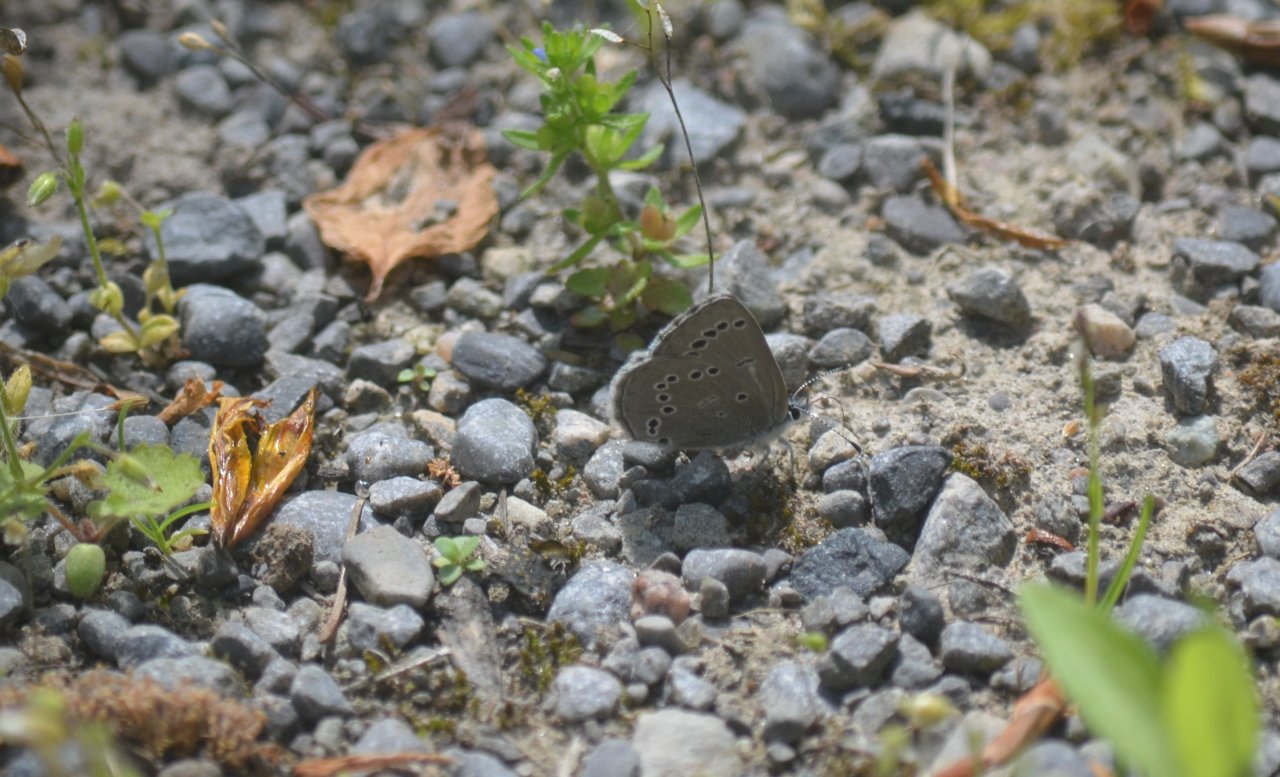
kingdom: Animalia
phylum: Arthropoda
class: Insecta
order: Lepidoptera
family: Lycaenidae
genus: Glaucopsyche
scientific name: Glaucopsyche lygdamus
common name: Silvery Blue
